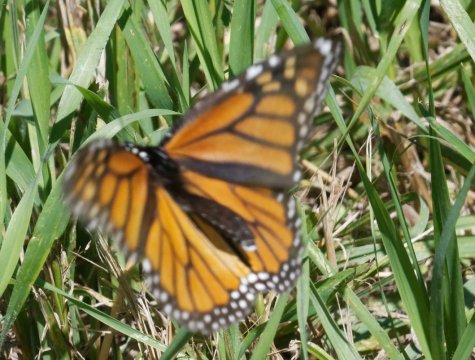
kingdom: Animalia
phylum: Arthropoda
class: Insecta
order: Lepidoptera
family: Nymphalidae
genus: Danaus
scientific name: Danaus plexippus
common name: Monarch
